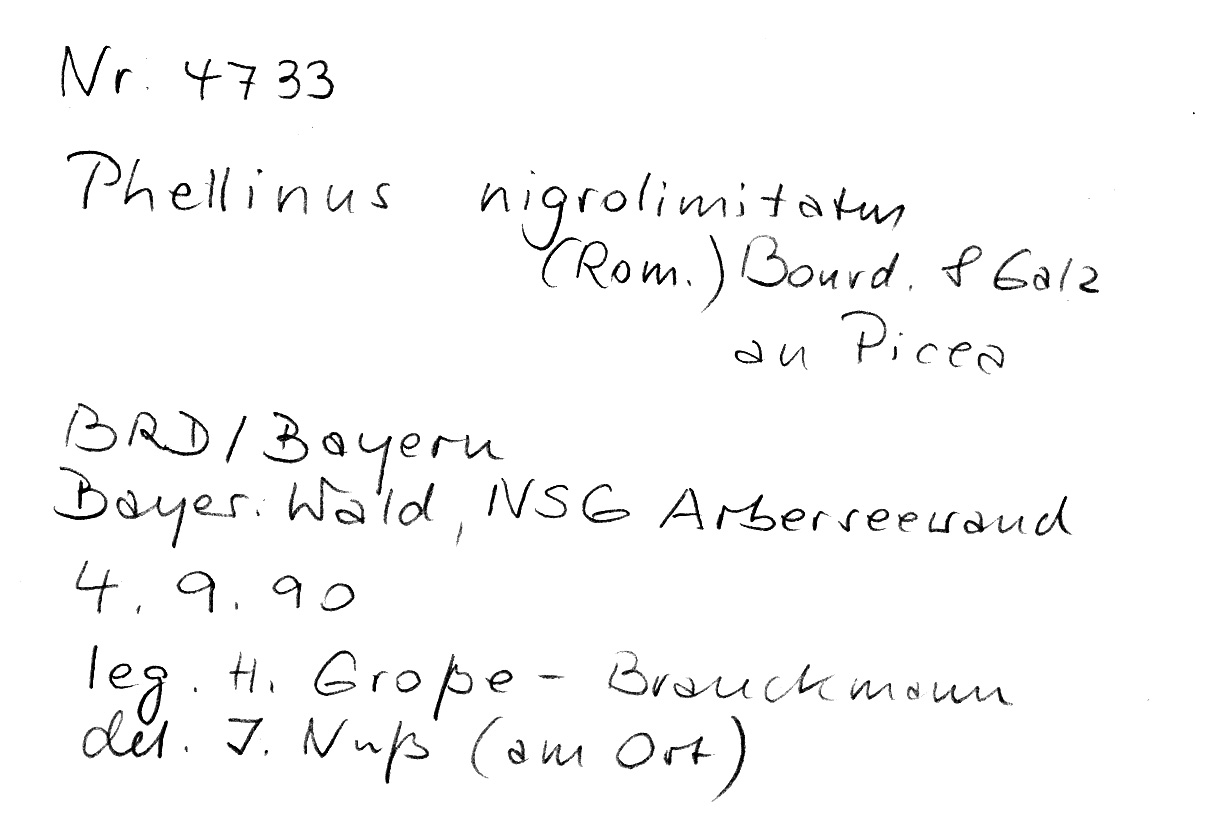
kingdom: Fungi
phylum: Basidiomycota
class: Agaricomycetes
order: Hymenochaetales
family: Hymenochaetaceae
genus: Phellopilus
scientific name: Phellopilus nigrolimitatus
